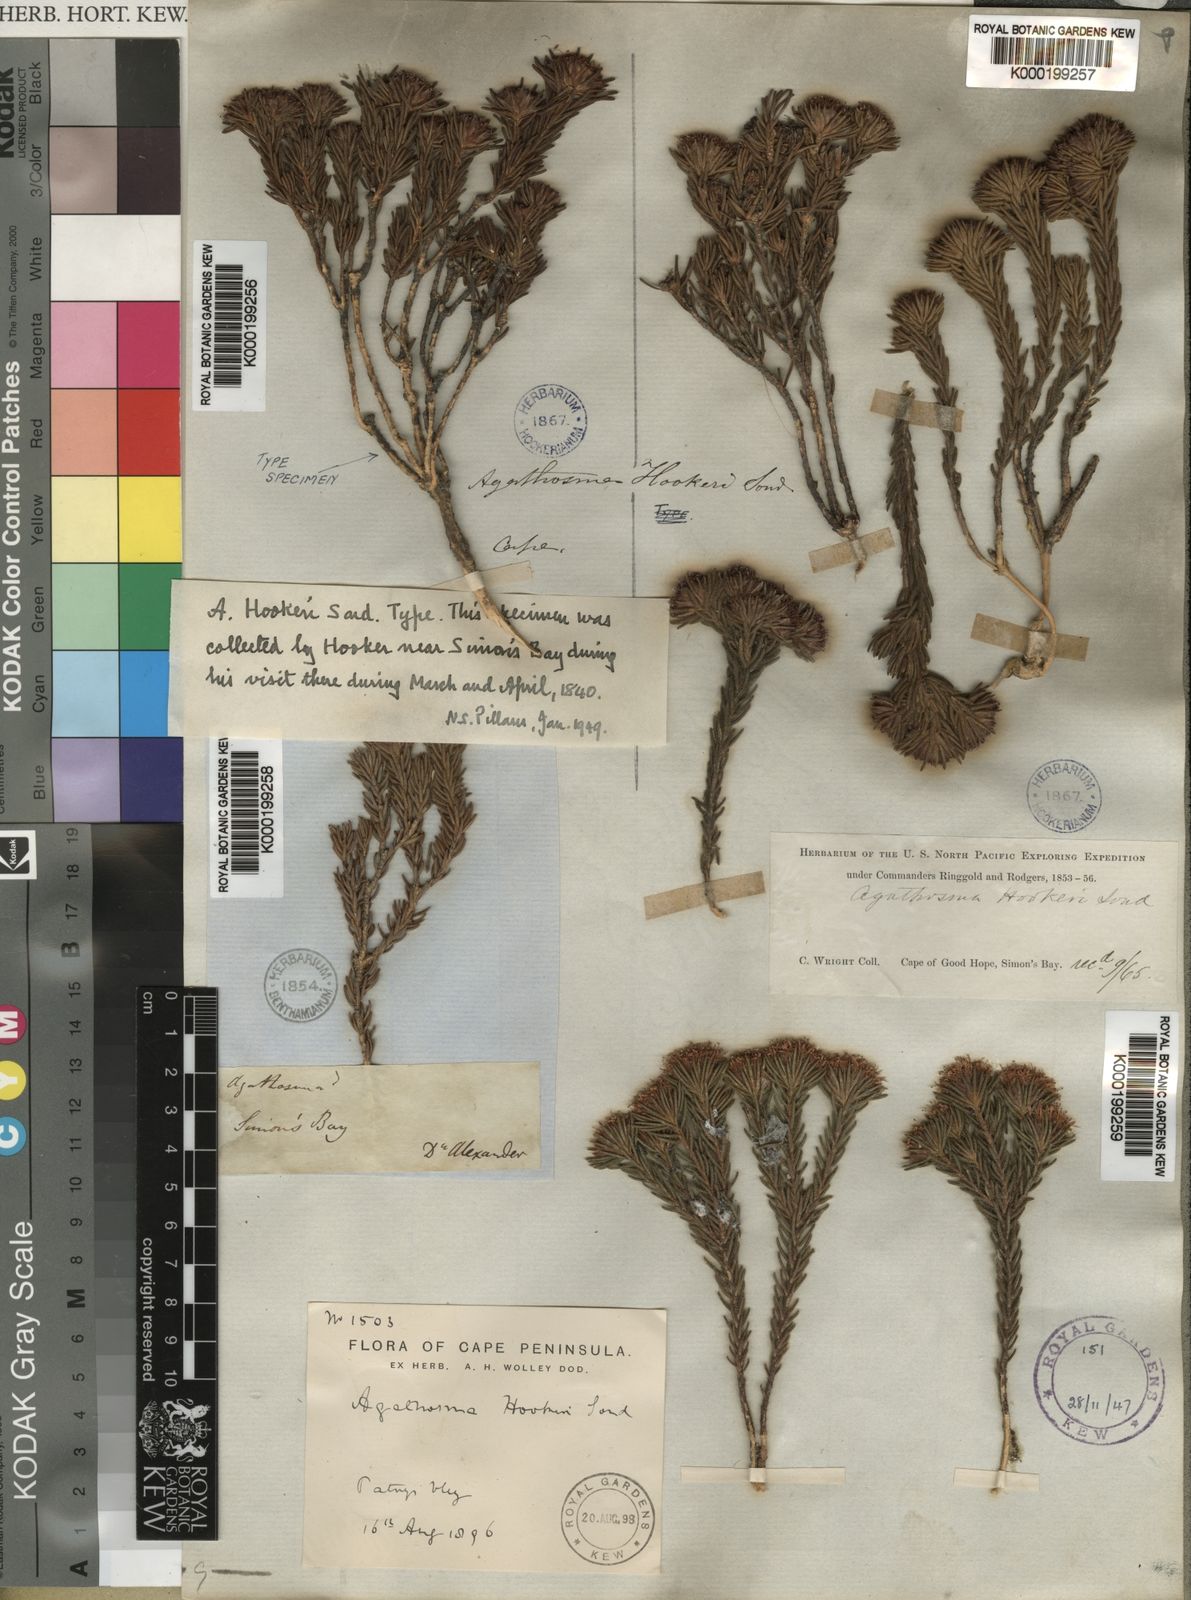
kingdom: Plantae
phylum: Tracheophyta
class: Magnoliopsida
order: Sapindales
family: Rutaceae
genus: Agathosma
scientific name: Agathosma hookeri
